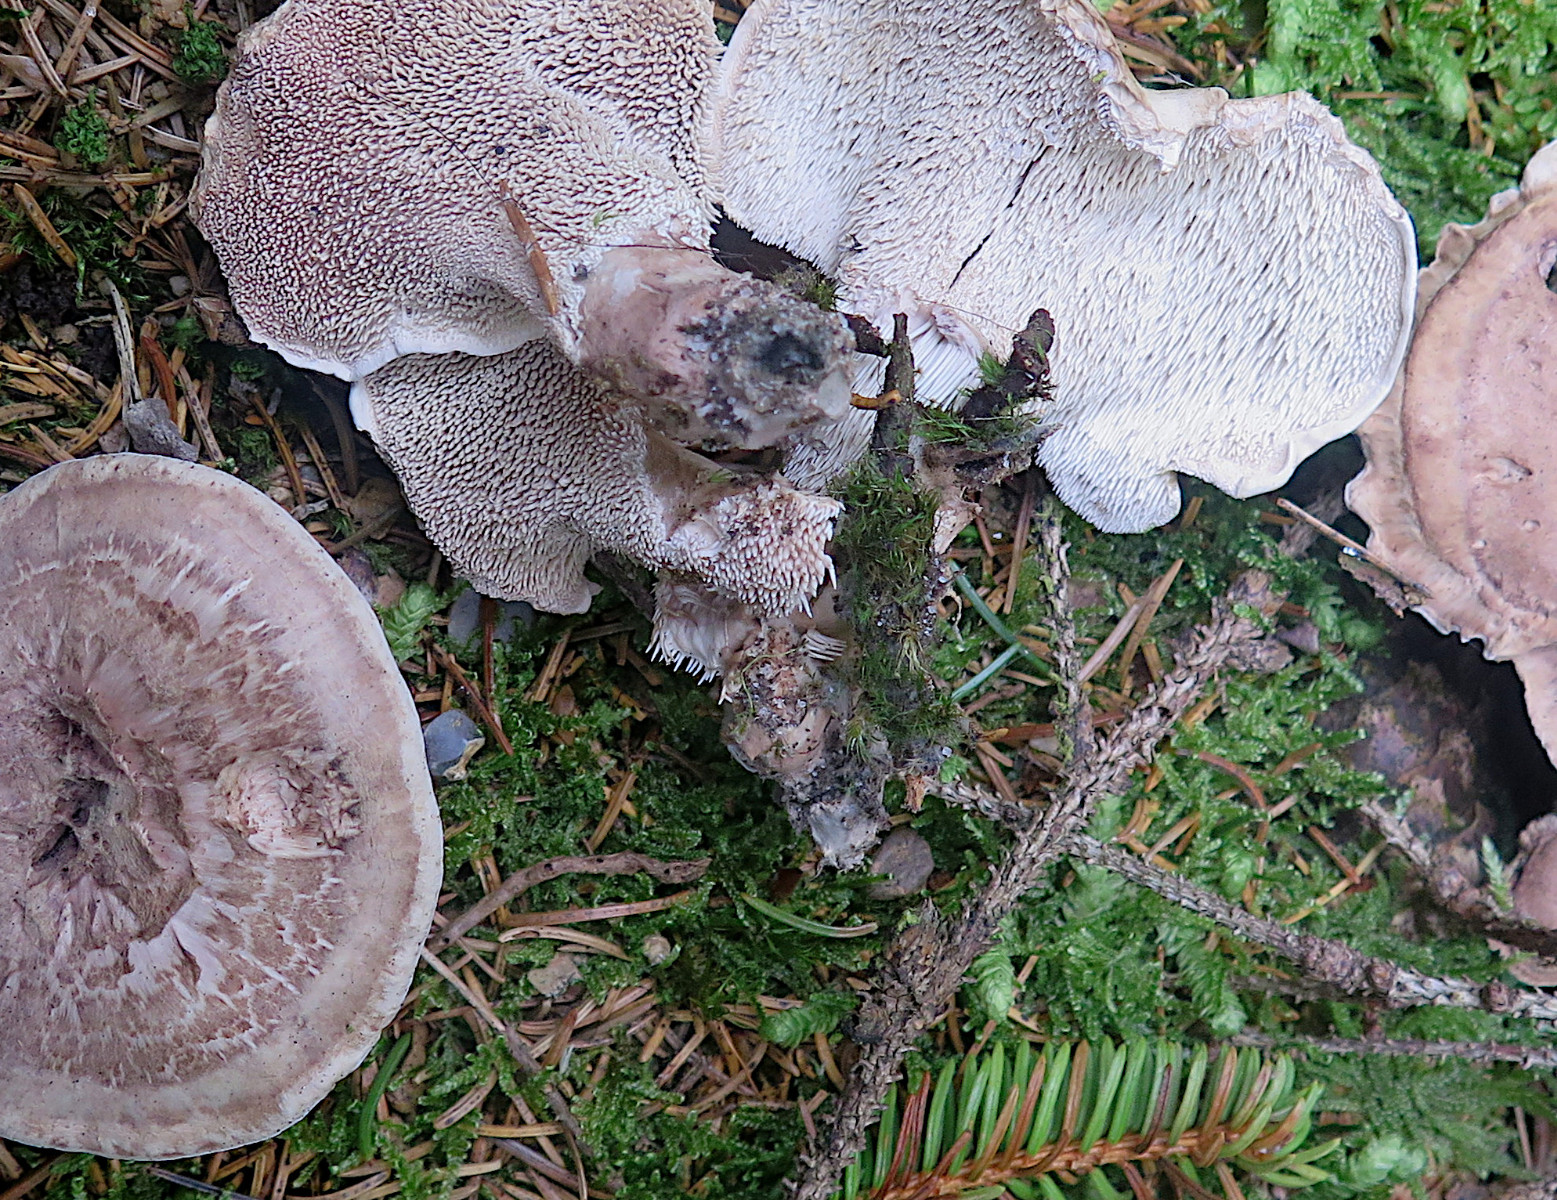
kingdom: Fungi
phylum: Basidiomycota
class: Agaricomycetes
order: Thelephorales
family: Thelephoraceae
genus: Phellodon
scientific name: Phellodon violascens
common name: violetbrun duftpigsvamp
